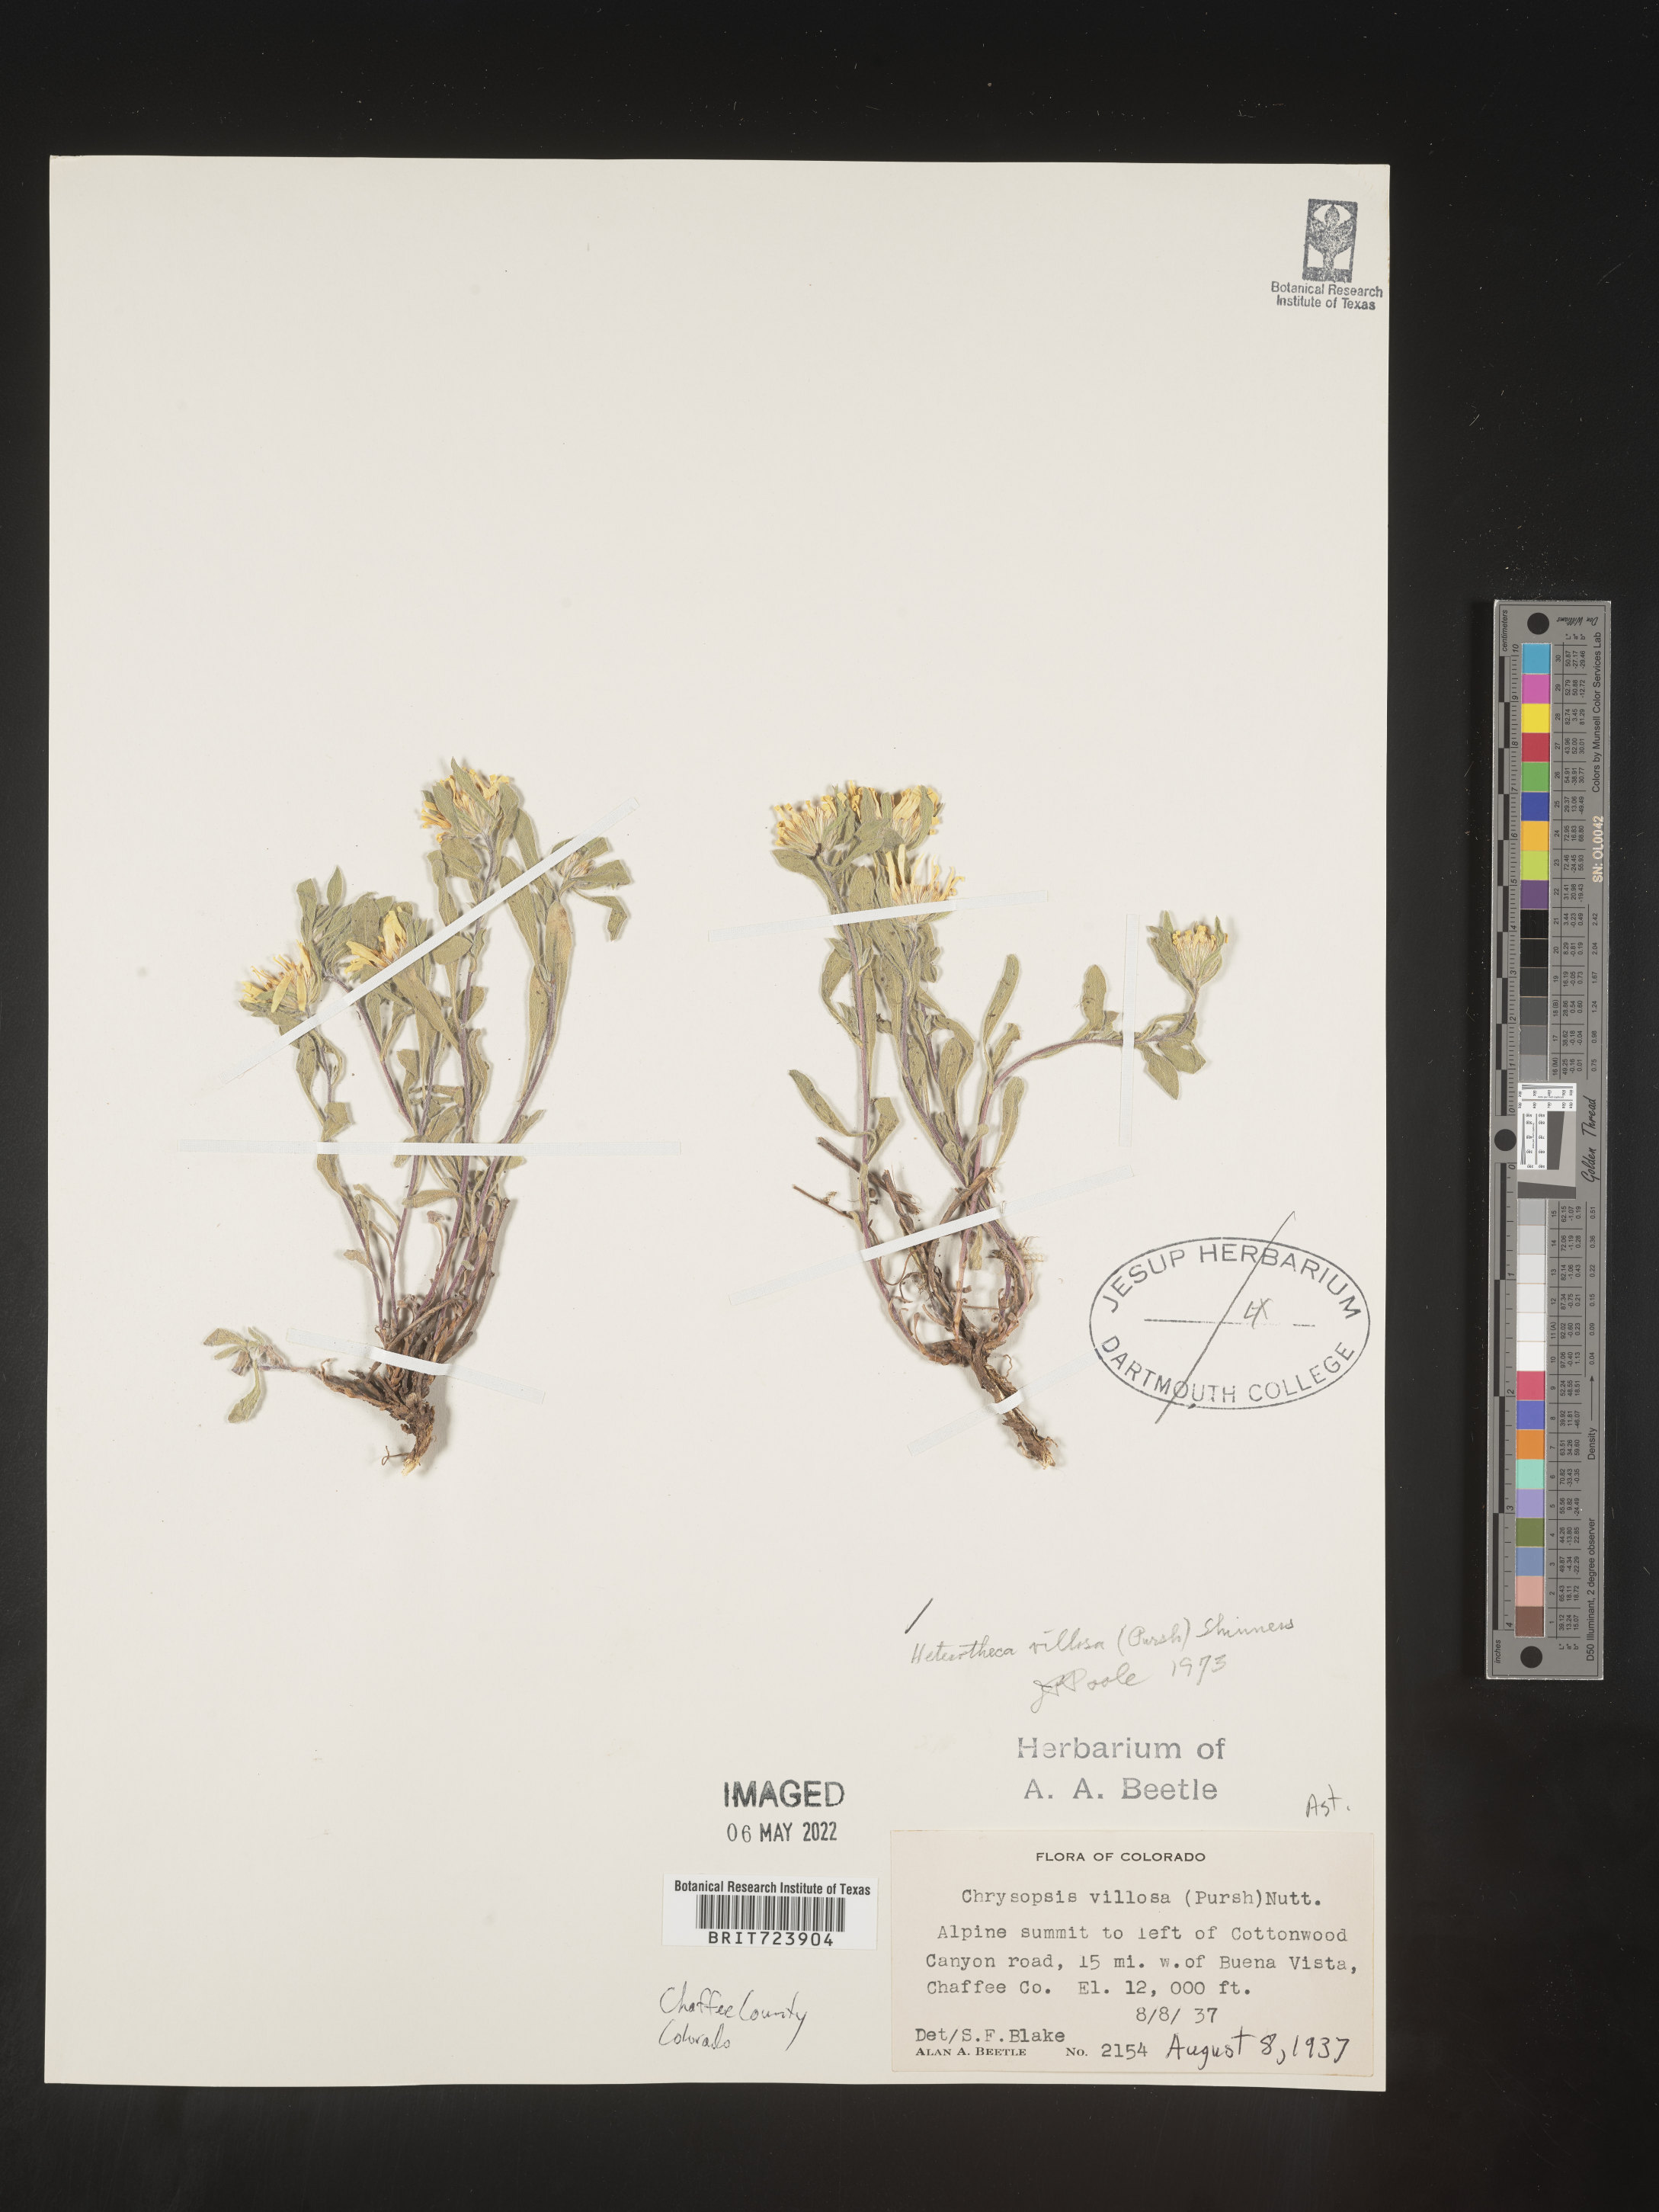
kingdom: Plantae
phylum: Tracheophyta
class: Magnoliopsida
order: Asterales
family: Asteraceae
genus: Heterotheca
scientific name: Heterotheca pumila
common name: Alpine golden-aster
